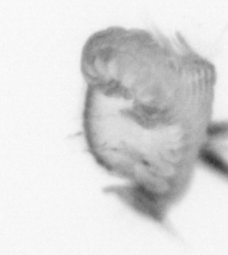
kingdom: Animalia
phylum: Annelida
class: Polychaeta
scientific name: Polychaeta
